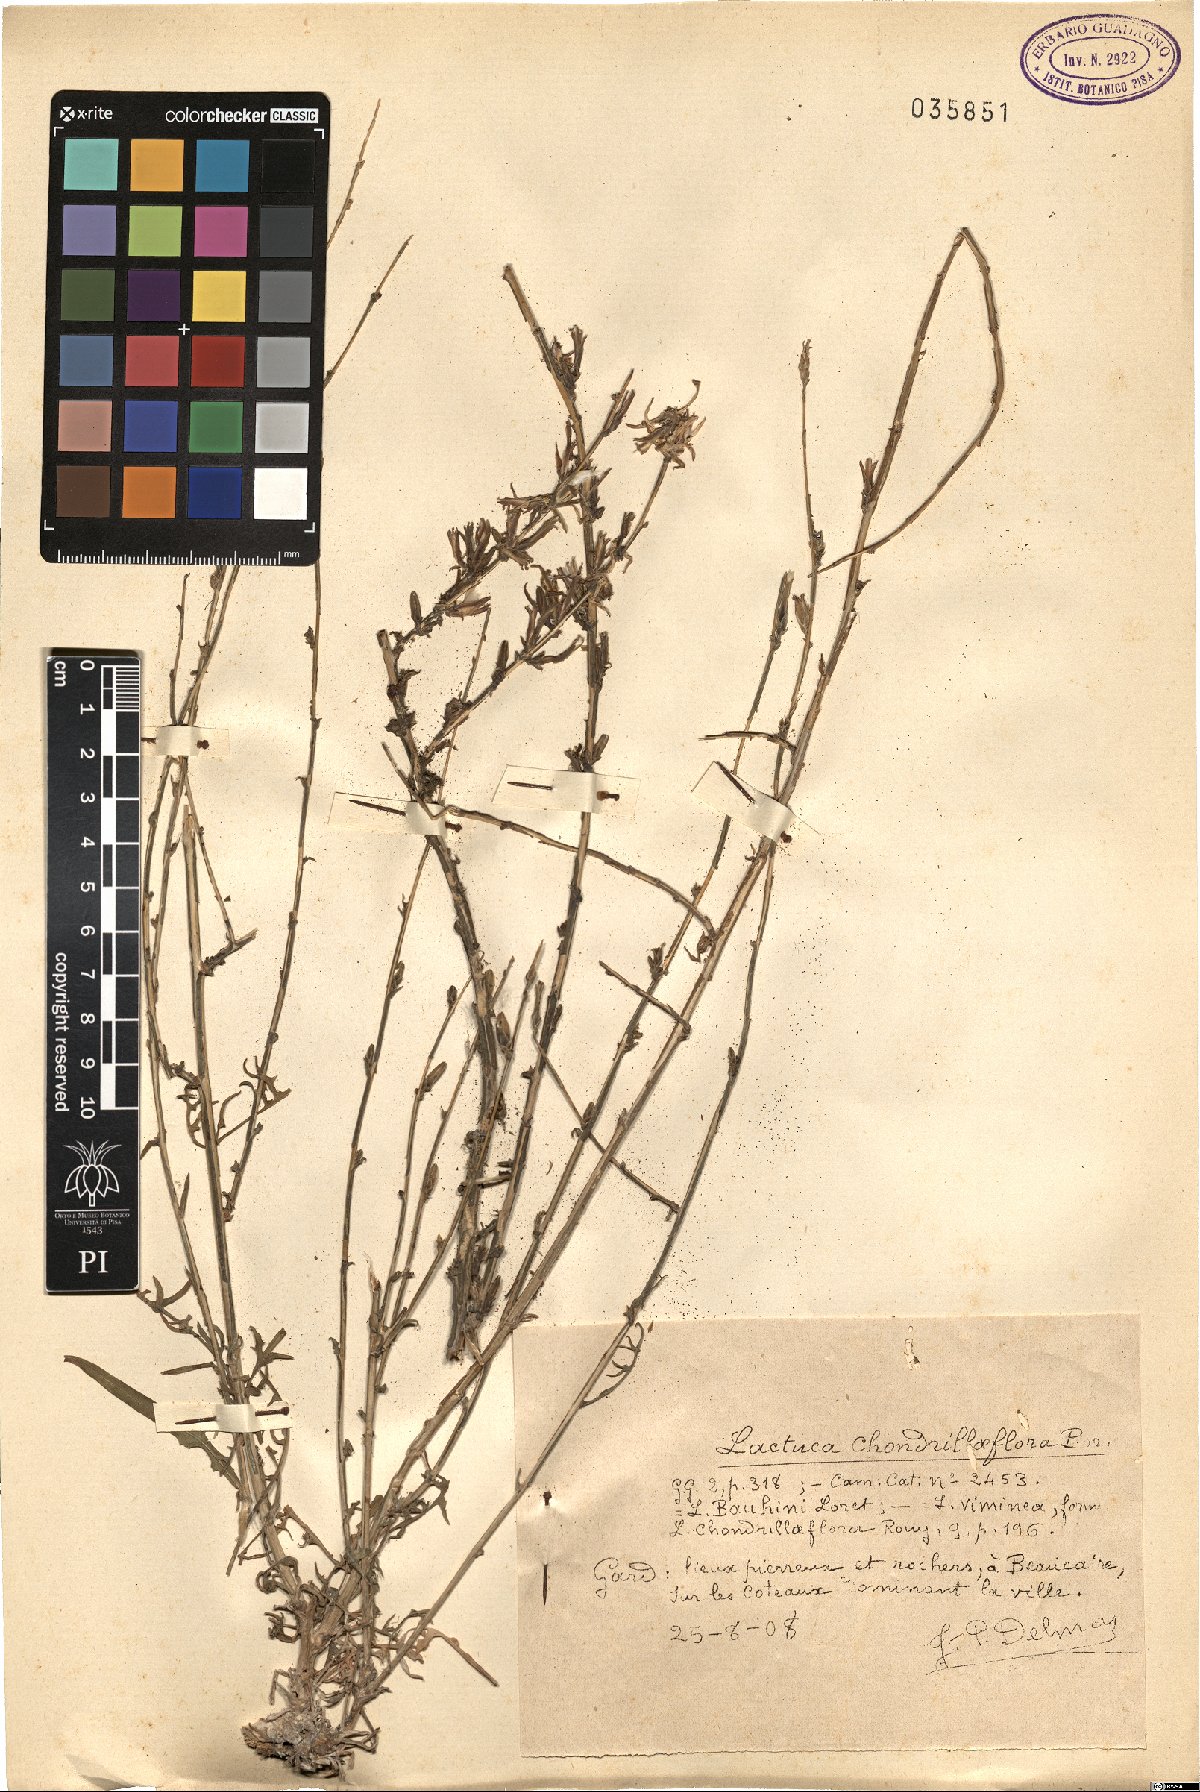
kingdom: Plantae
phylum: Tracheophyta
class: Magnoliopsida
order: Asterales
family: Asteraceae
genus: Lactuca
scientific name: Lactuca viminea
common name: Pliant lettuce
